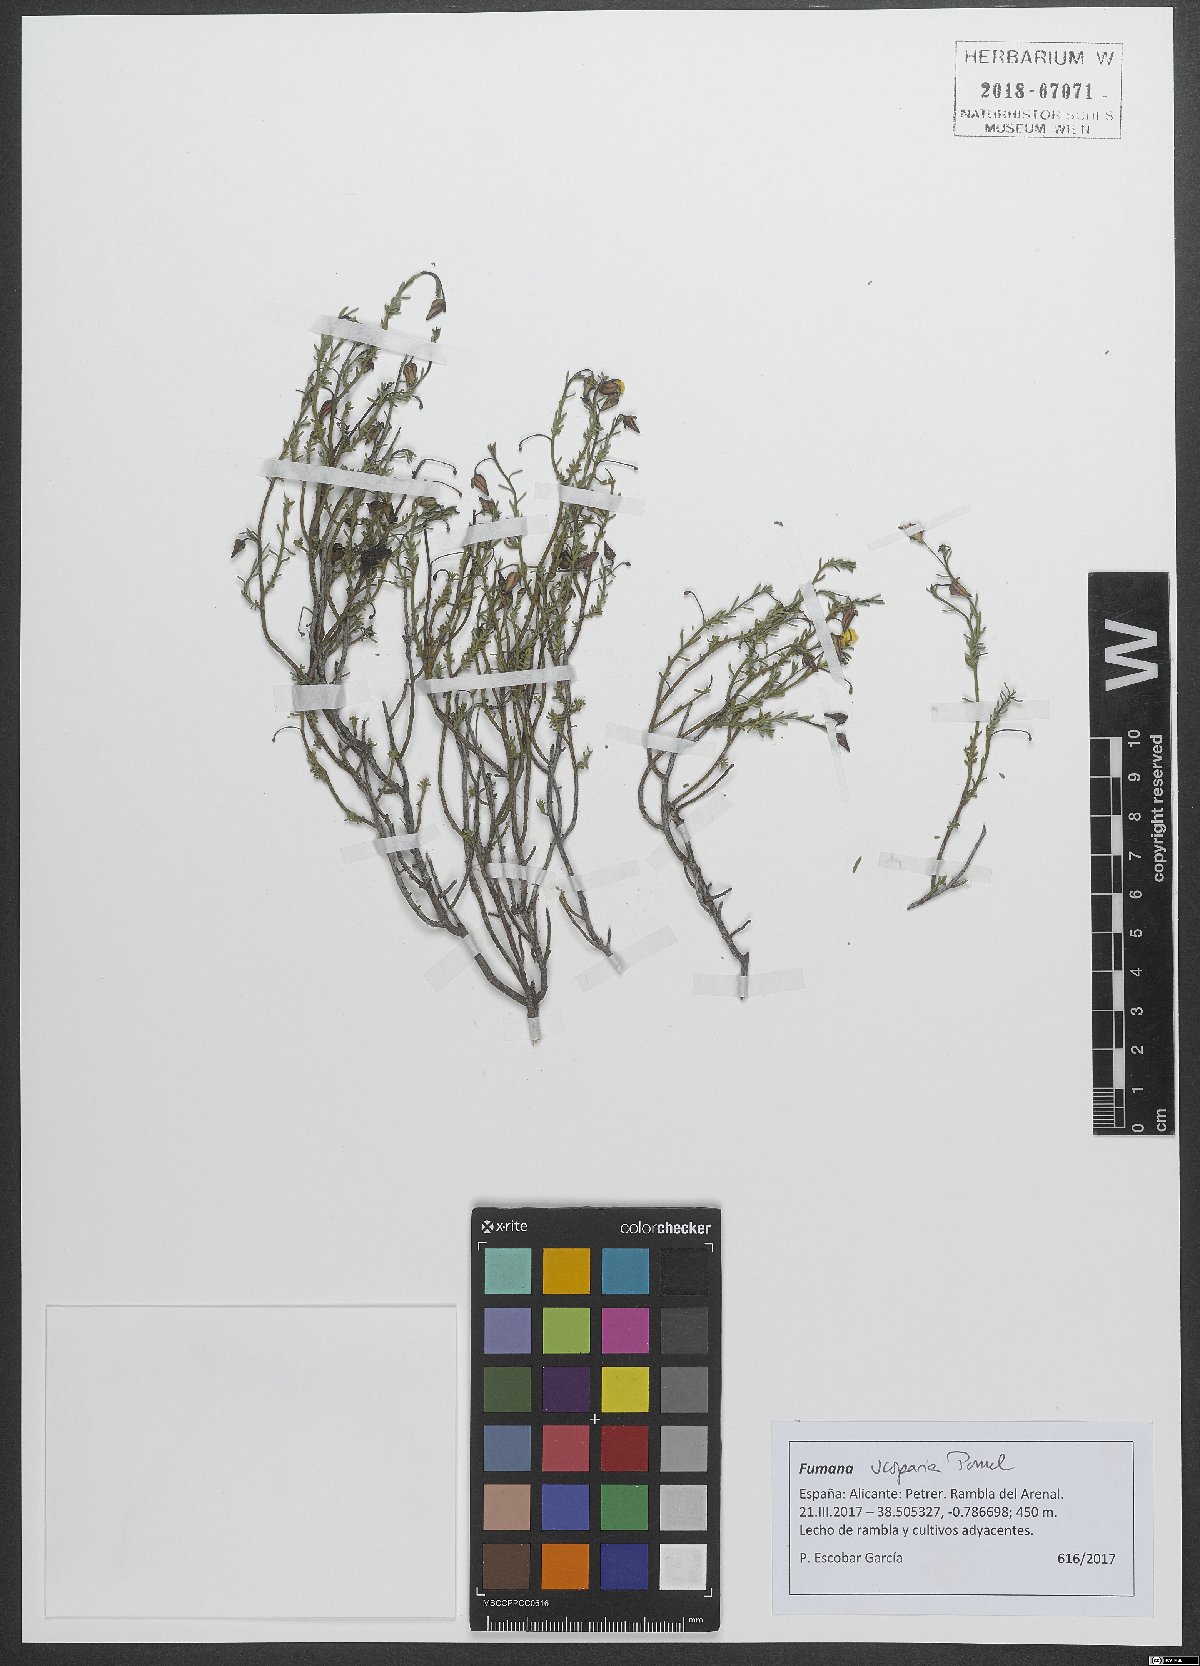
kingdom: Plantae
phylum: Tracheophyta
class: Magnoliopsida
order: Malvales
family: Cistaceae
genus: Fumana
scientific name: Fumana scoparia
